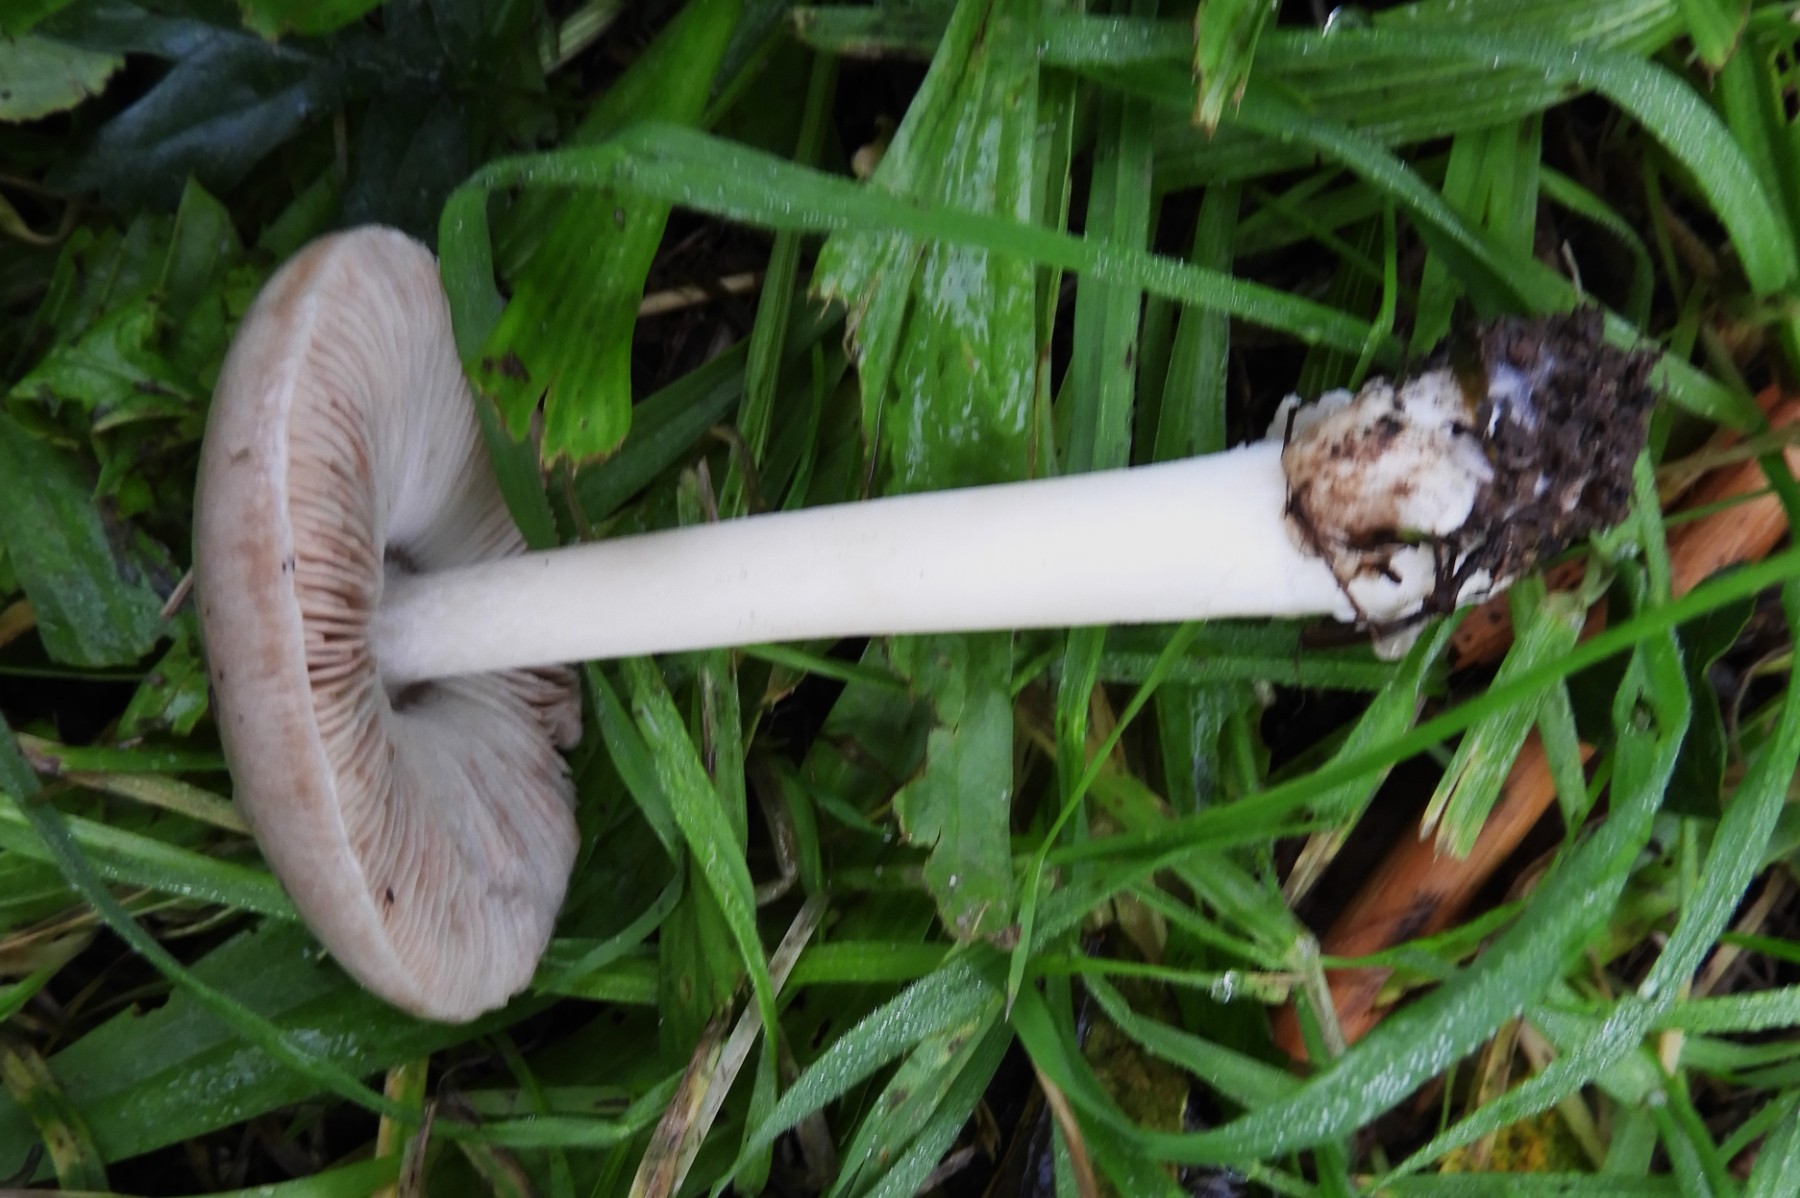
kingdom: Fungi
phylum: Basidiomycota
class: Agaricomycetes
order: Agaricales
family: Pluteaceae
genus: Volvopluteus
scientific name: Volvopluteus gloiocephalus
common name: høj posesvamp
